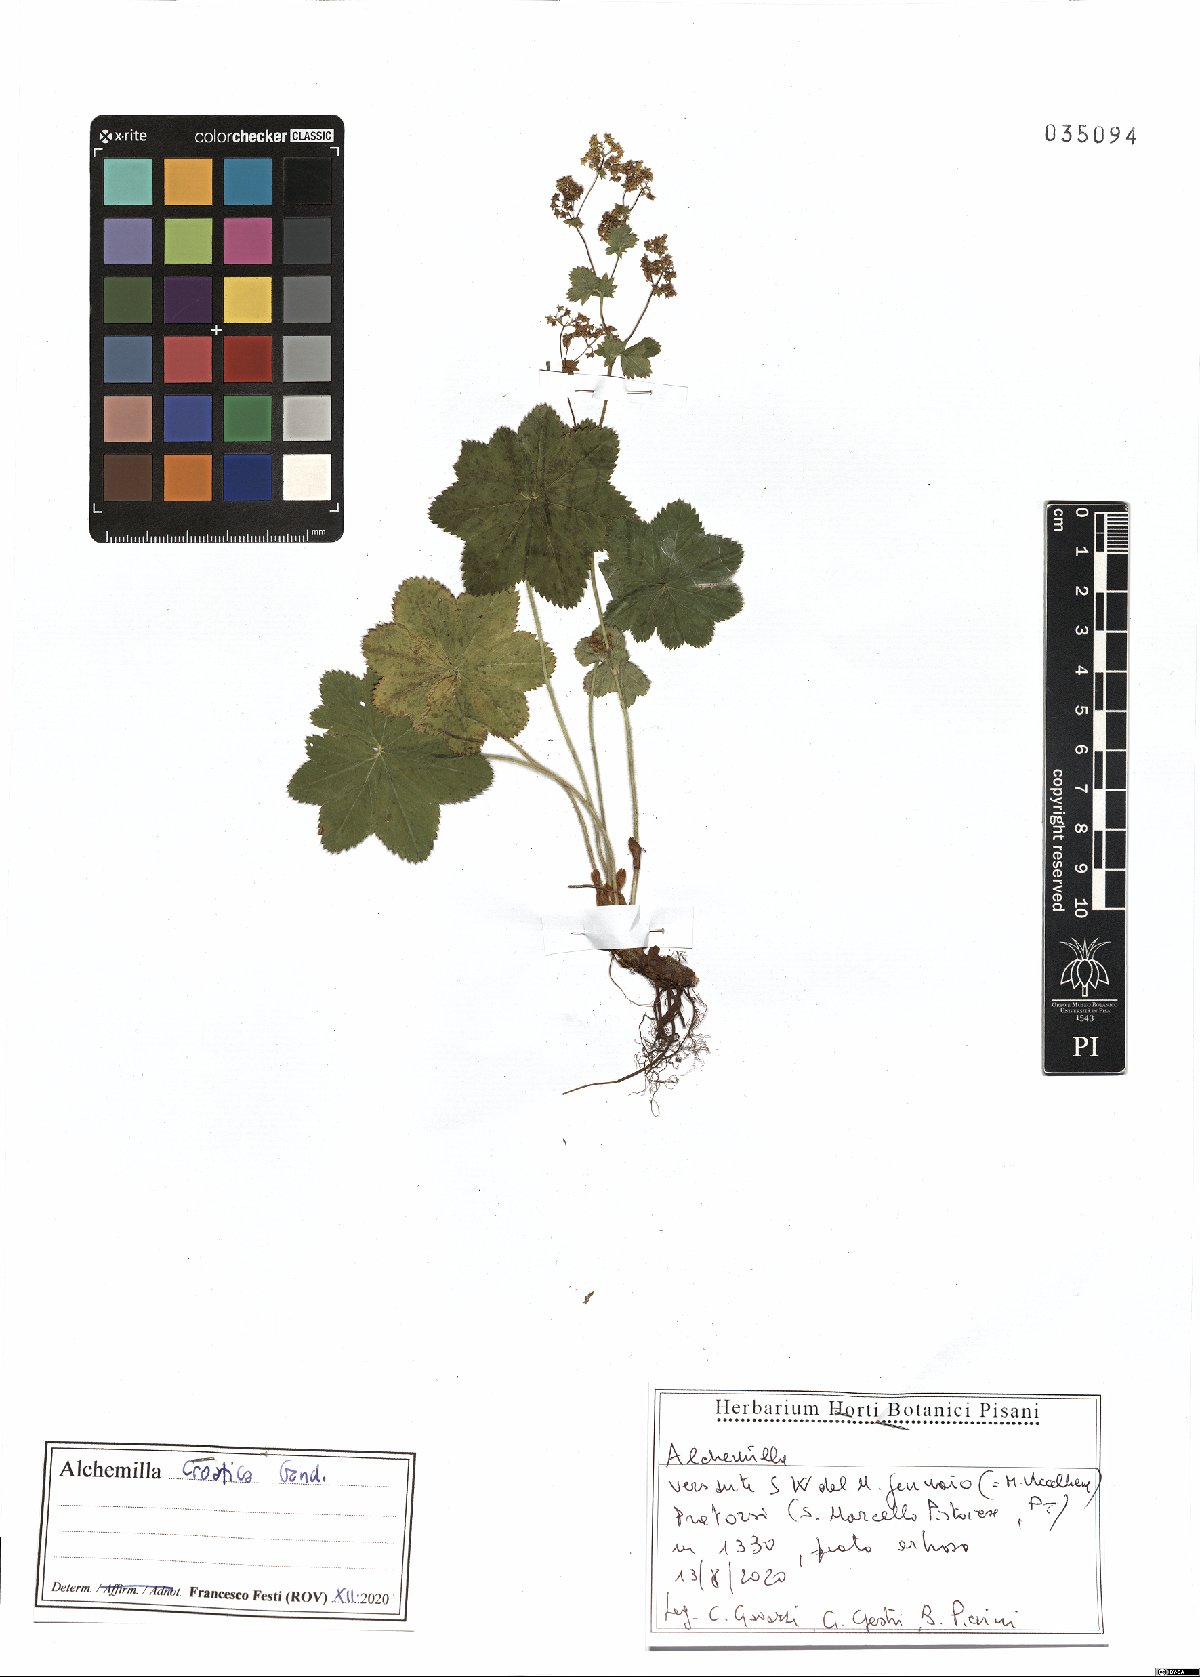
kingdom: Plantae
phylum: Tracheophyta
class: Magnoliopsida
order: Rosales
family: Rosaceae
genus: Alchemilla
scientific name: Alchemilla croatica
